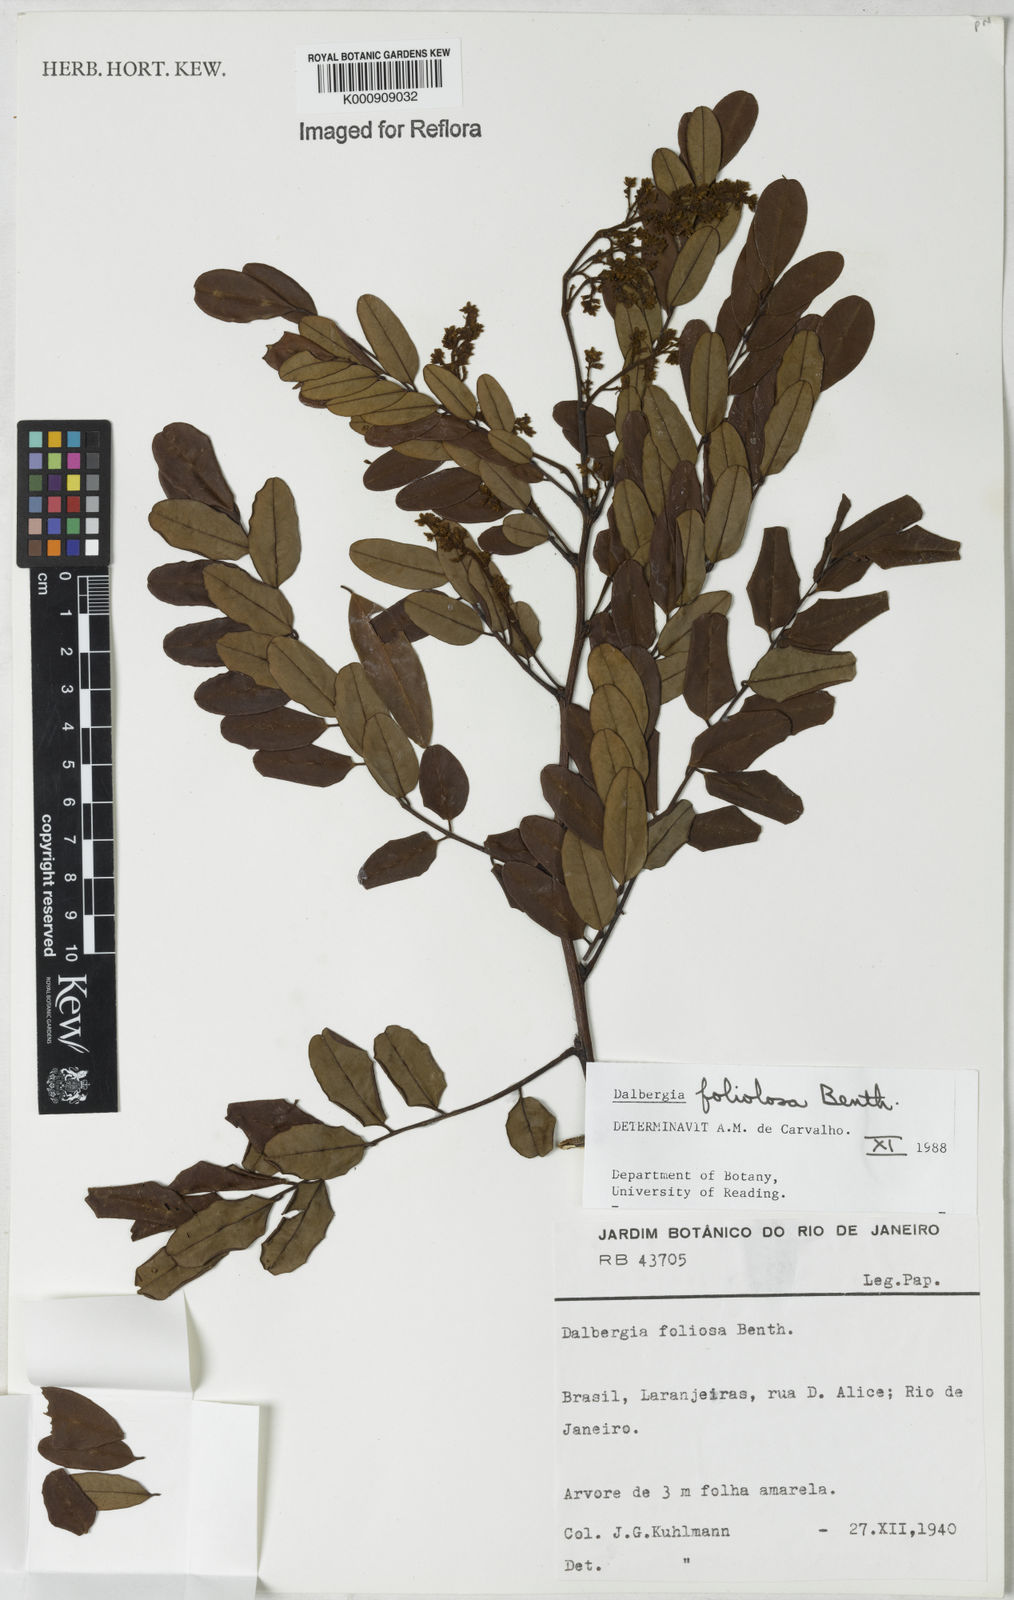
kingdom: Plantae
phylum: Tracheophyta
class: Magnoliopsida
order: Fabales
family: Fabaceae
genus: Dalbergia
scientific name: Dalbergia foliolosa
